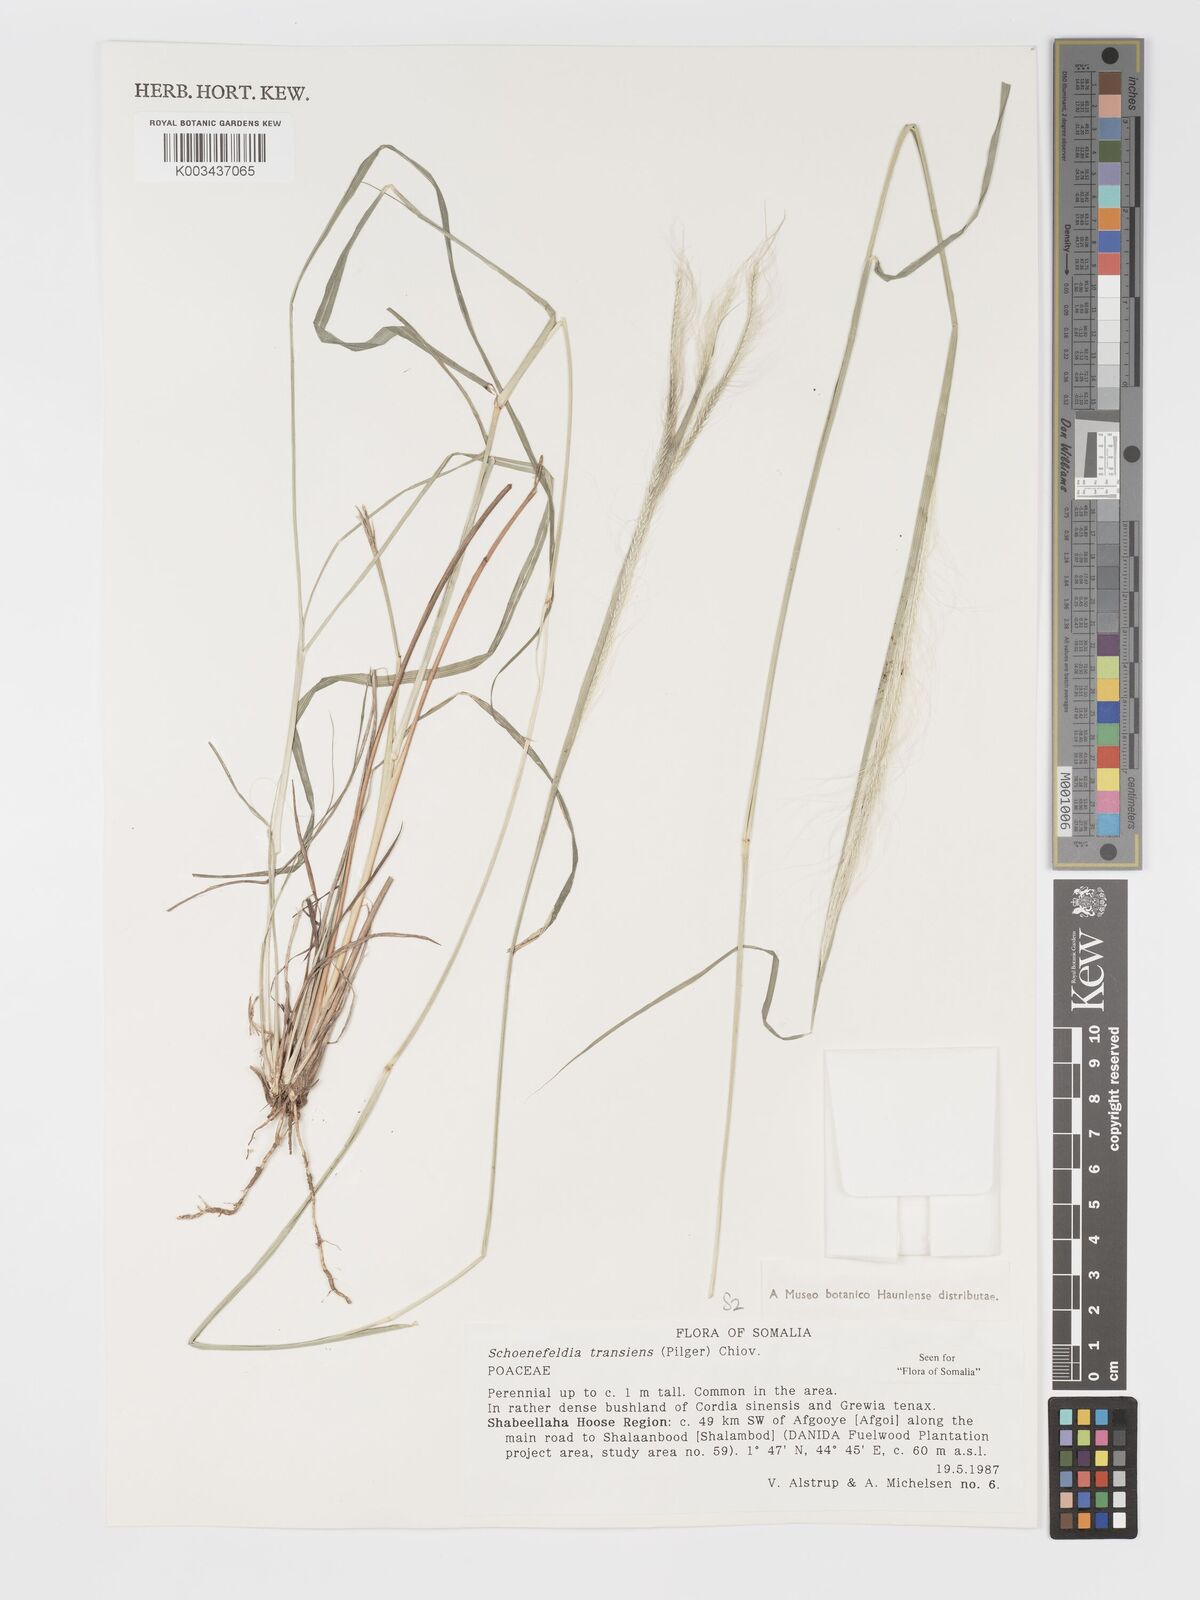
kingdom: Plantae
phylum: Tracheophyta
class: Liliopsida
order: Poales
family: Poaceae
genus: Schoenefeldia
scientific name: Schoenefeldia transiens
